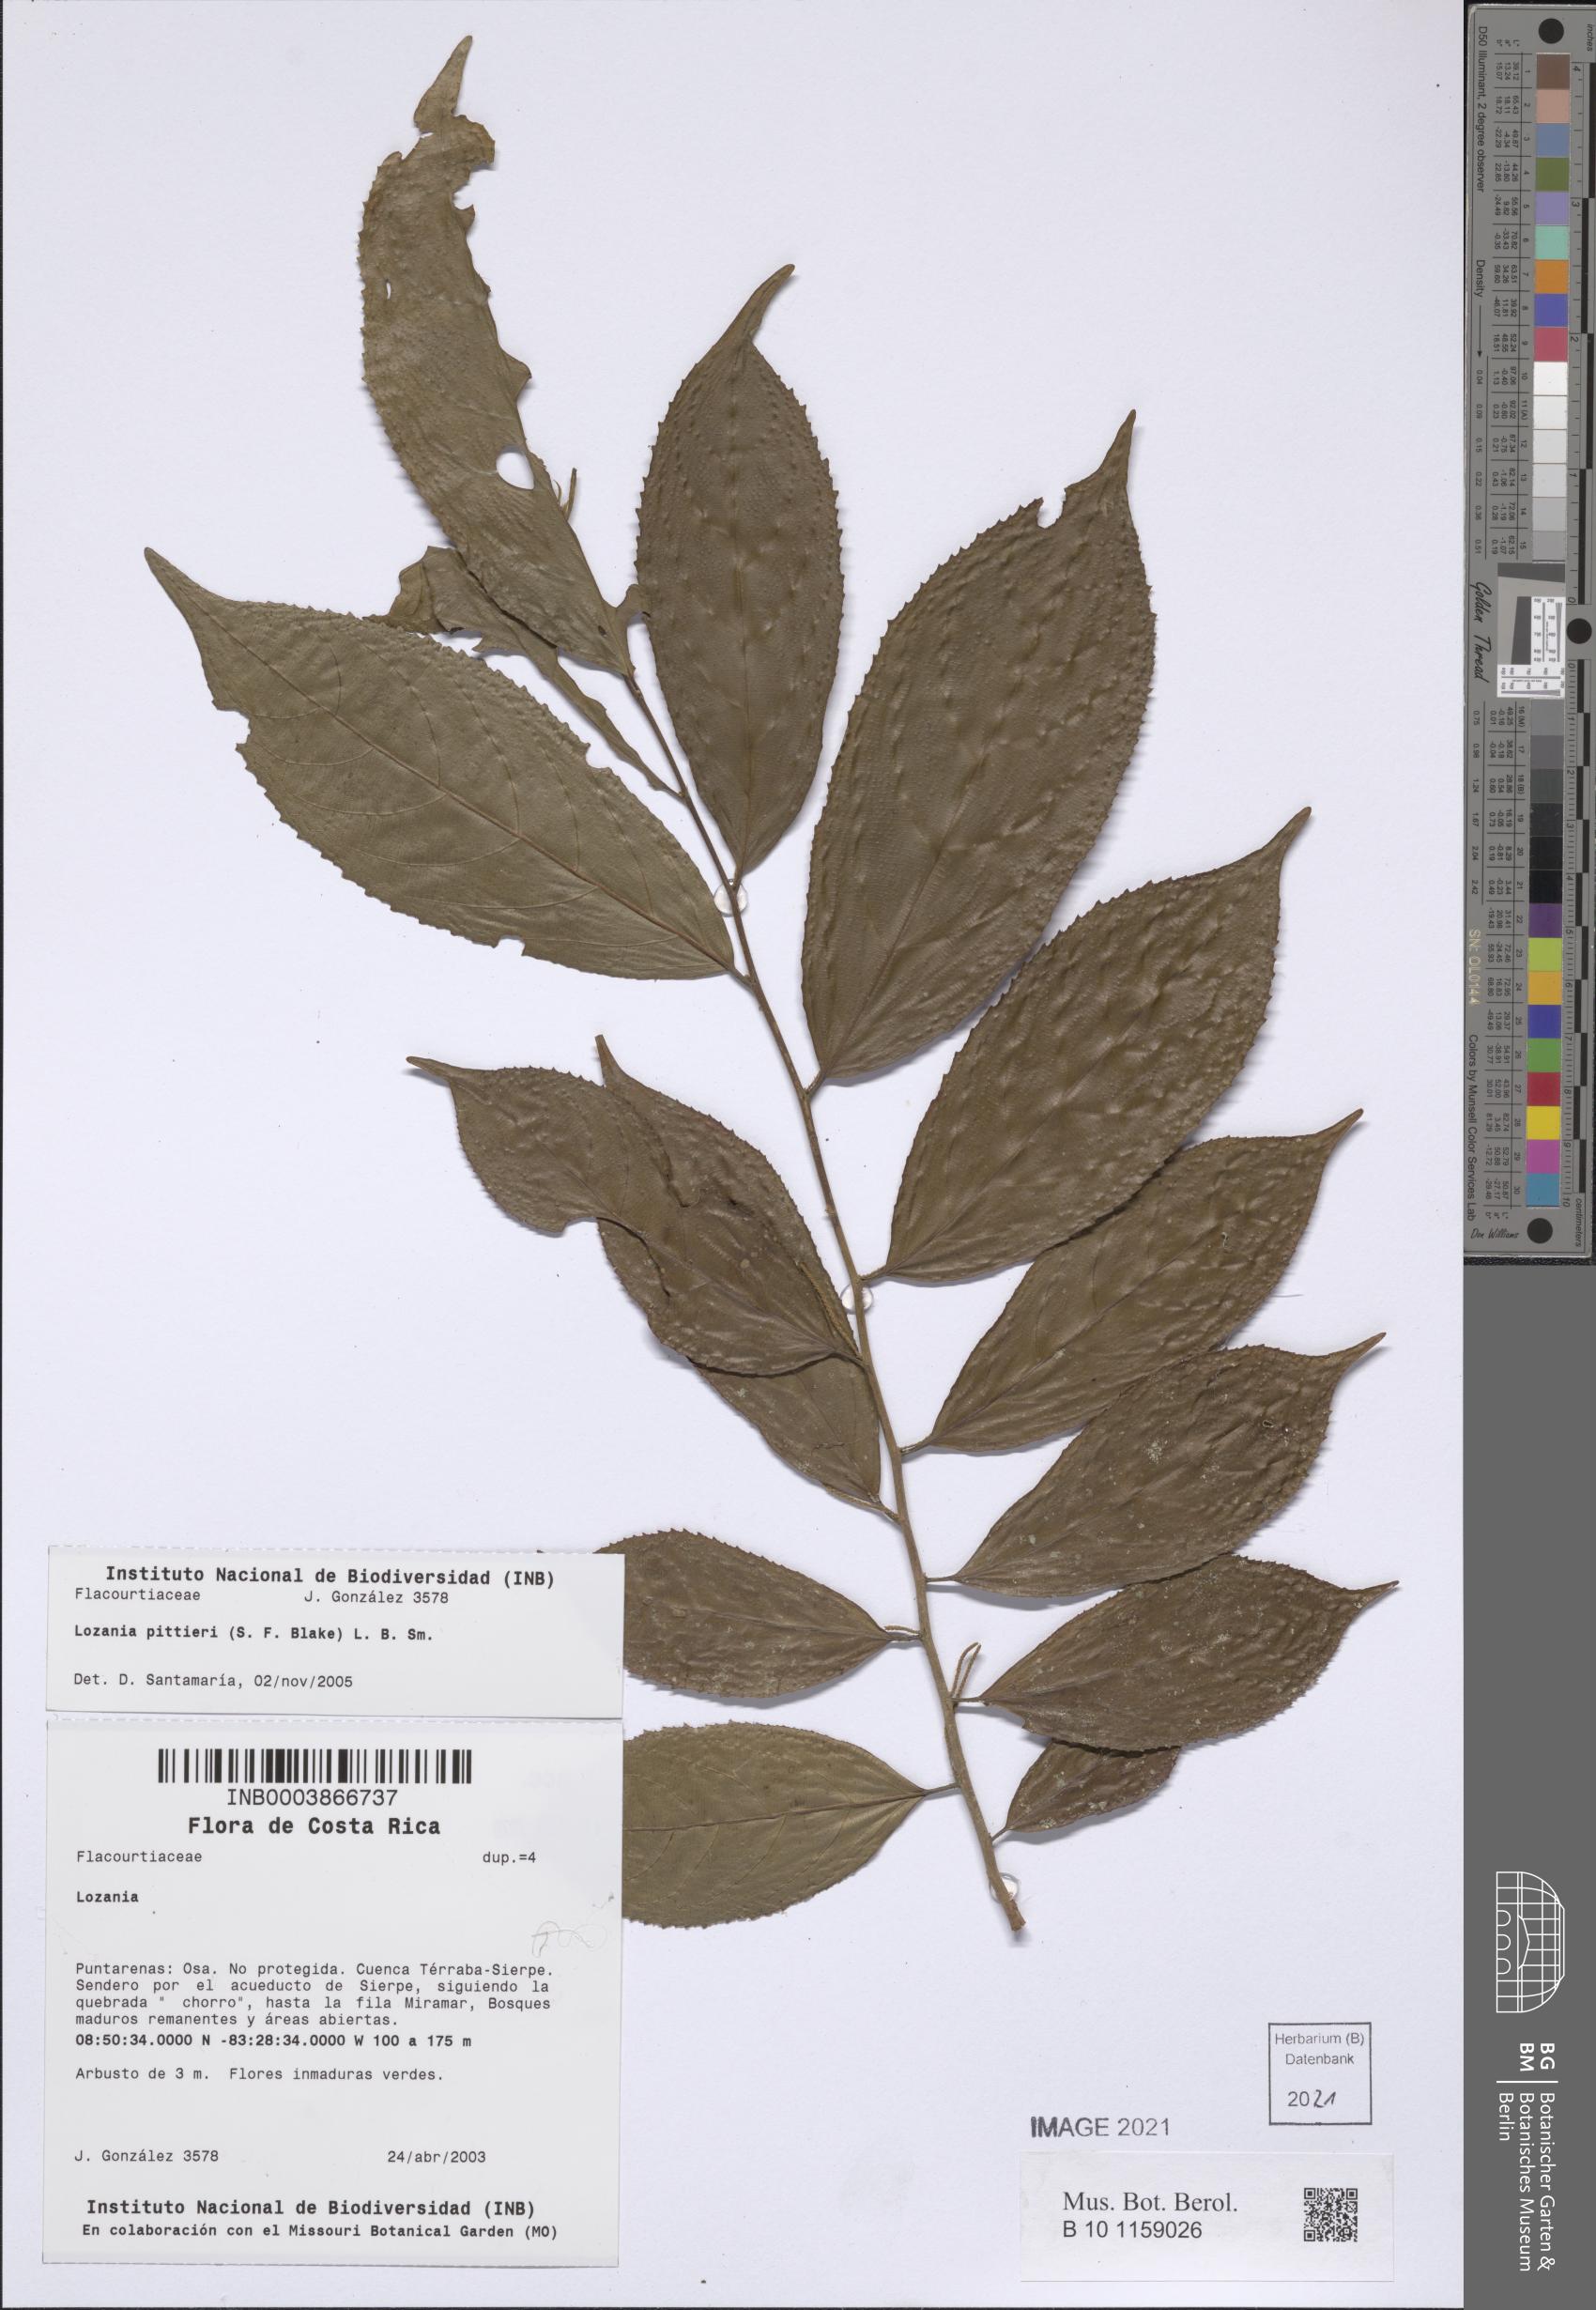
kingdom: Plantae
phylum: Tracheophyta
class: Magnoliopsida
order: Malpighiales
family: Lacistemataceae
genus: Lozania
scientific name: Lozania pittieri
